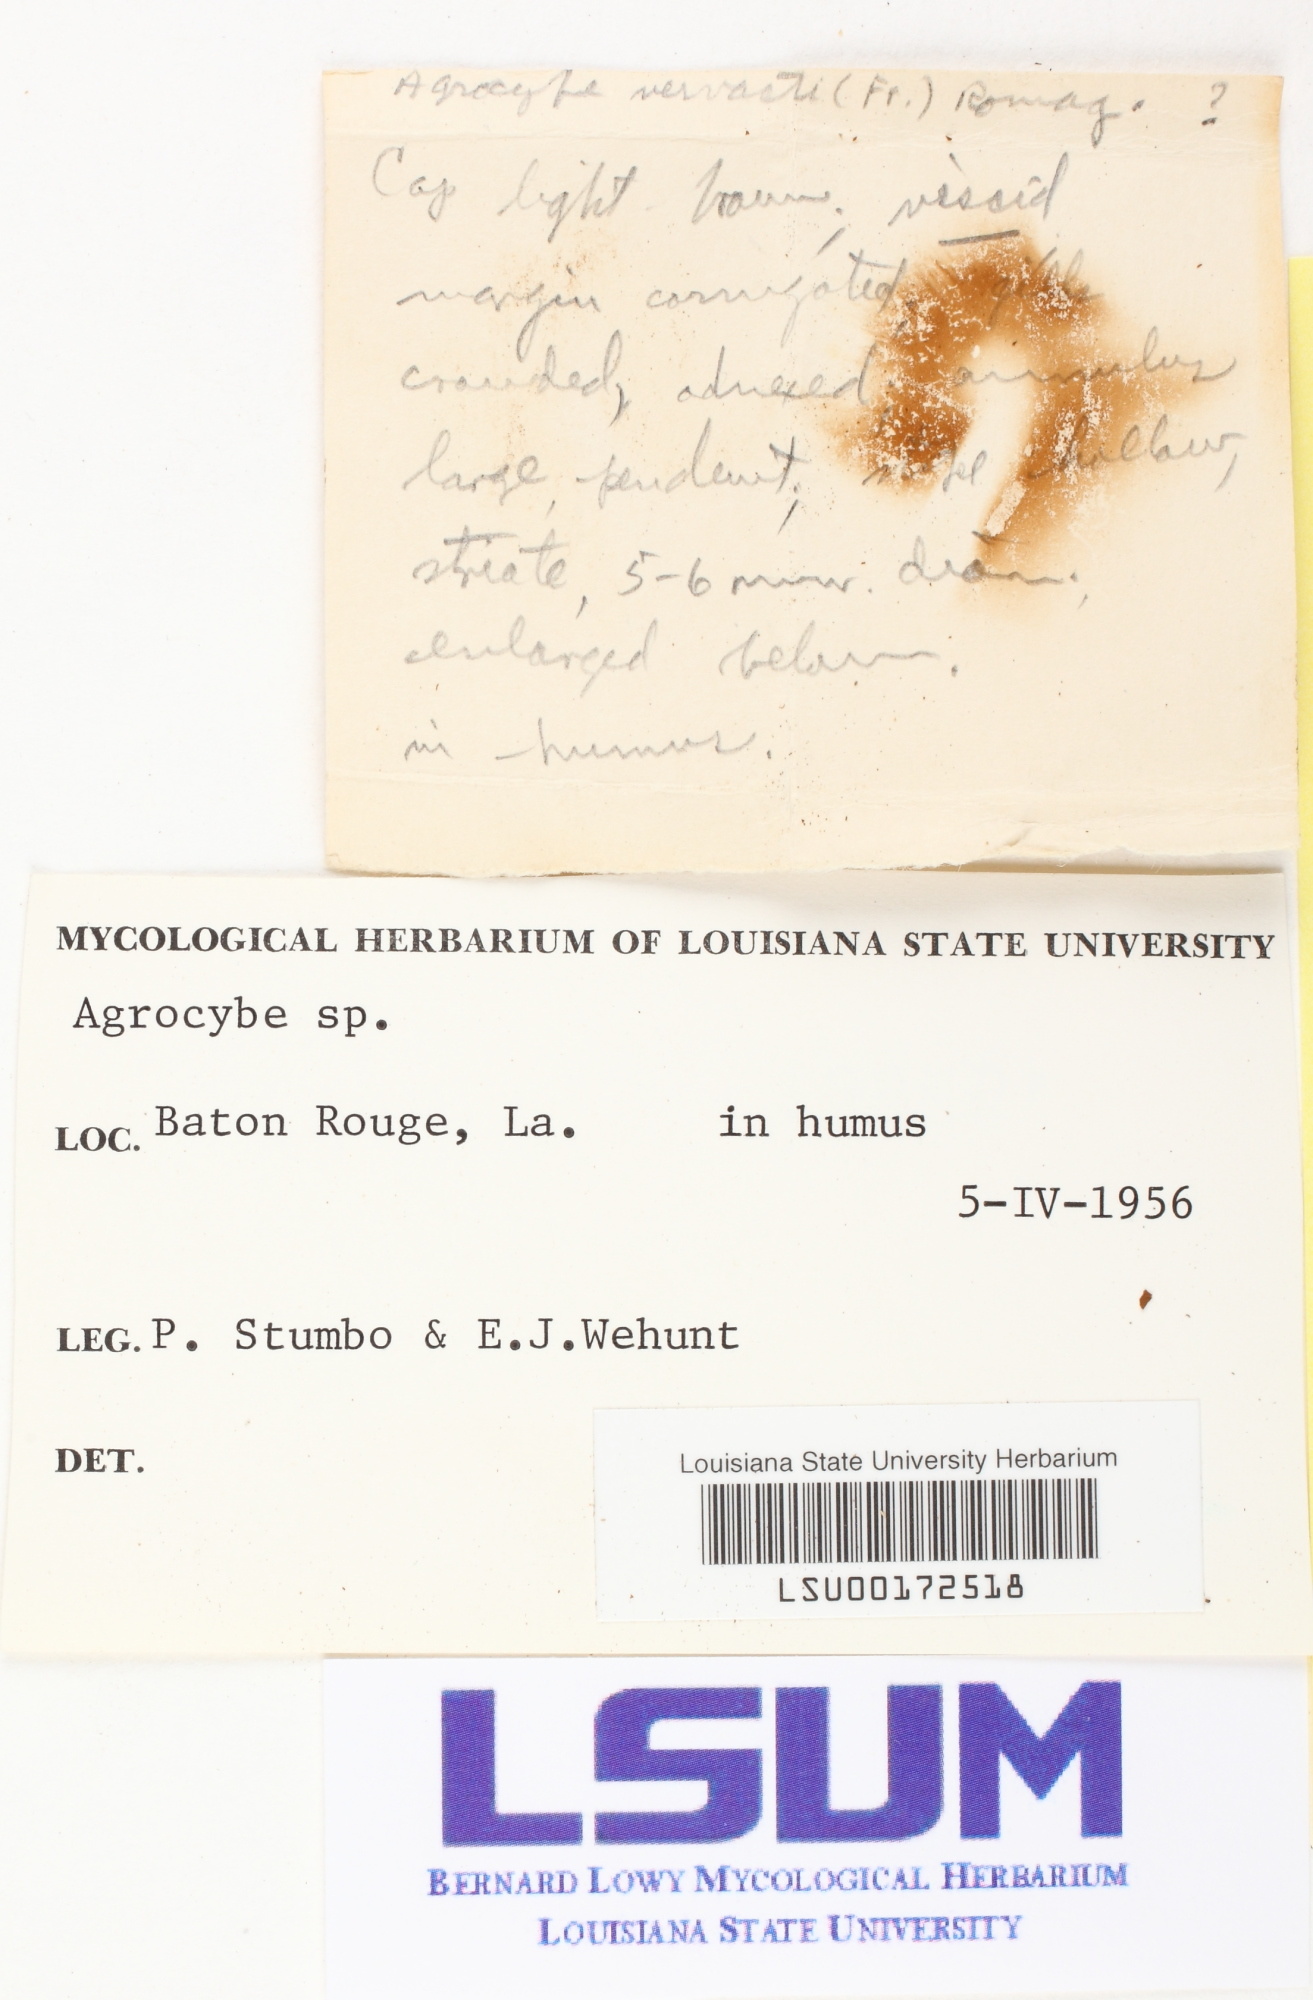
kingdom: Fungi
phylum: Basidiomycota
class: Agaricomycetes
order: Agaricales
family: Strophariaceae
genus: Agrocybe
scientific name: Agrocybe
